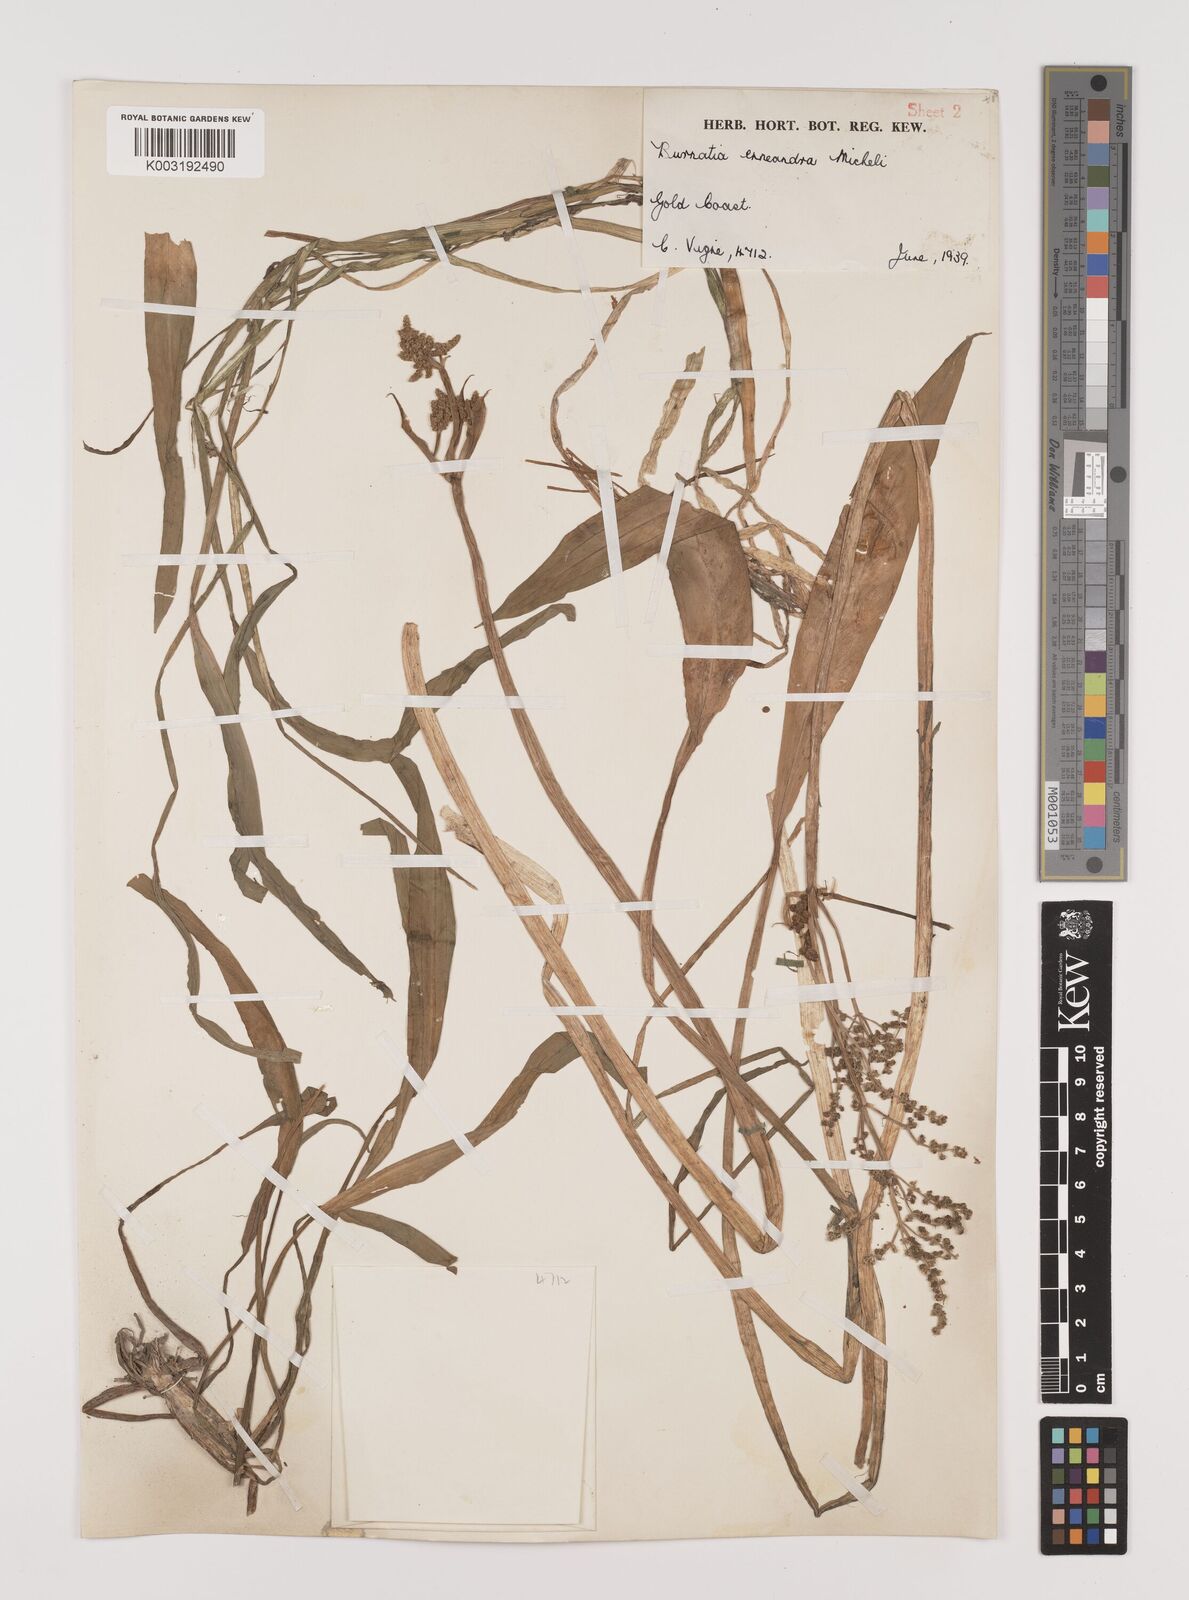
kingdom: Plantae
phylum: Tracheophyta
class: Liliopsida
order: Alismatales
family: Alismataceae
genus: Burnatia
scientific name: Burnatia enneandra
